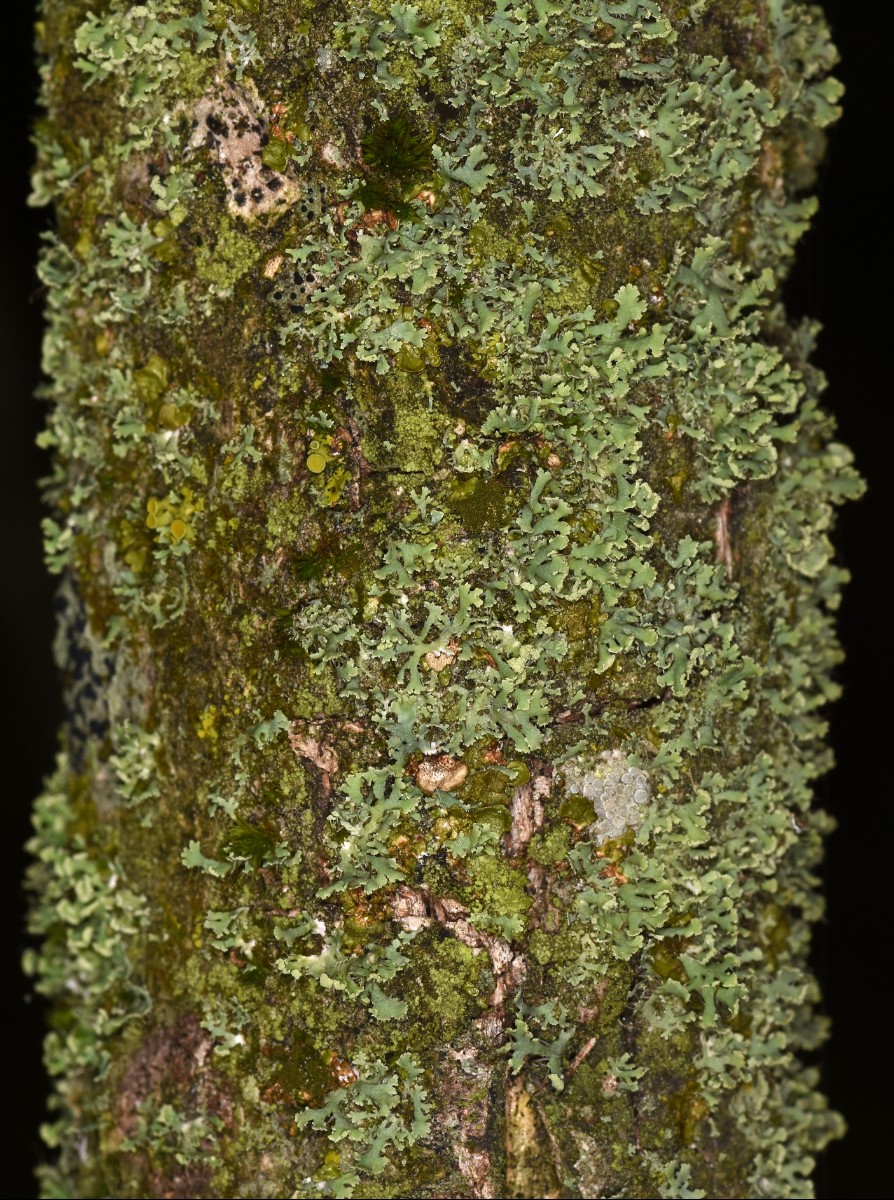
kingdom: Fungi
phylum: Ascomycota
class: Lecanoromycetes
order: Caliciales
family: Physciaceae
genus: Physcia
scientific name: Physcia tenella
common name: spæd rosetlav
